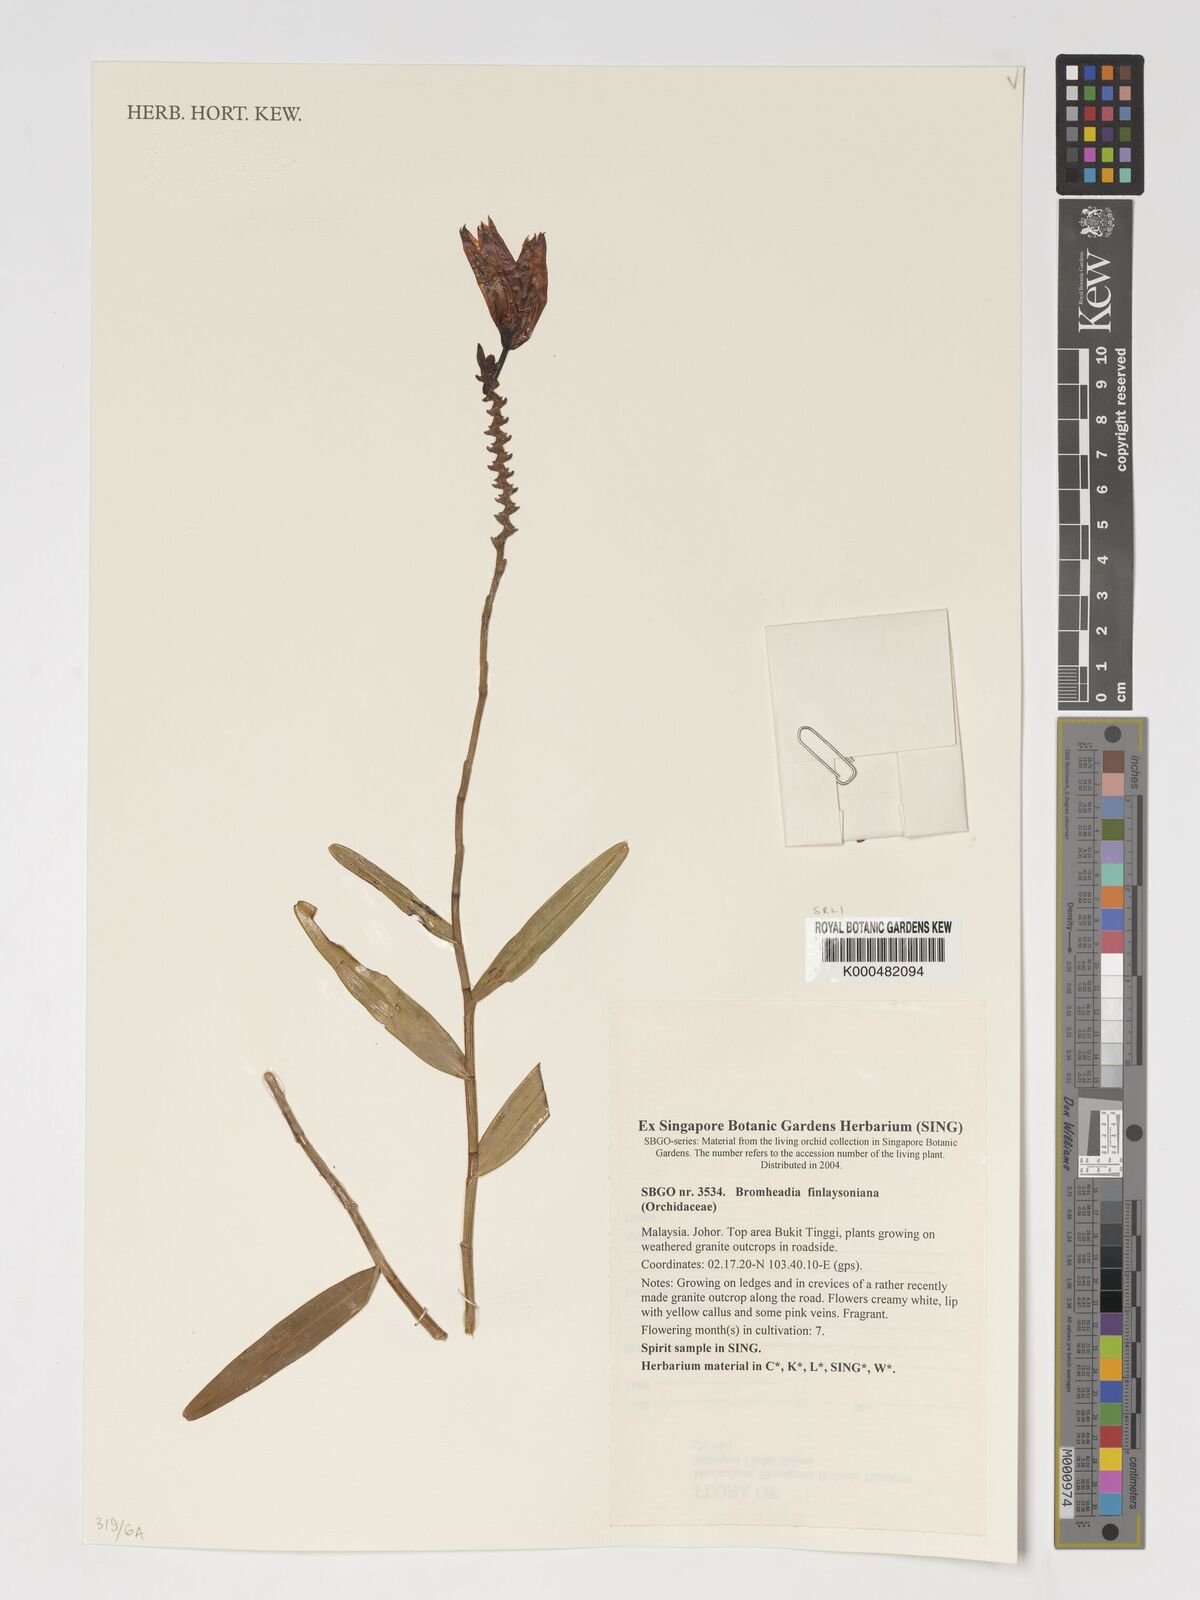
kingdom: Plantae
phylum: Tracheophyta
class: Liliopsida
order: Asparagales
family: Orchidaceae
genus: Bromheadia
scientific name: Bromheadia finlaysoniana
